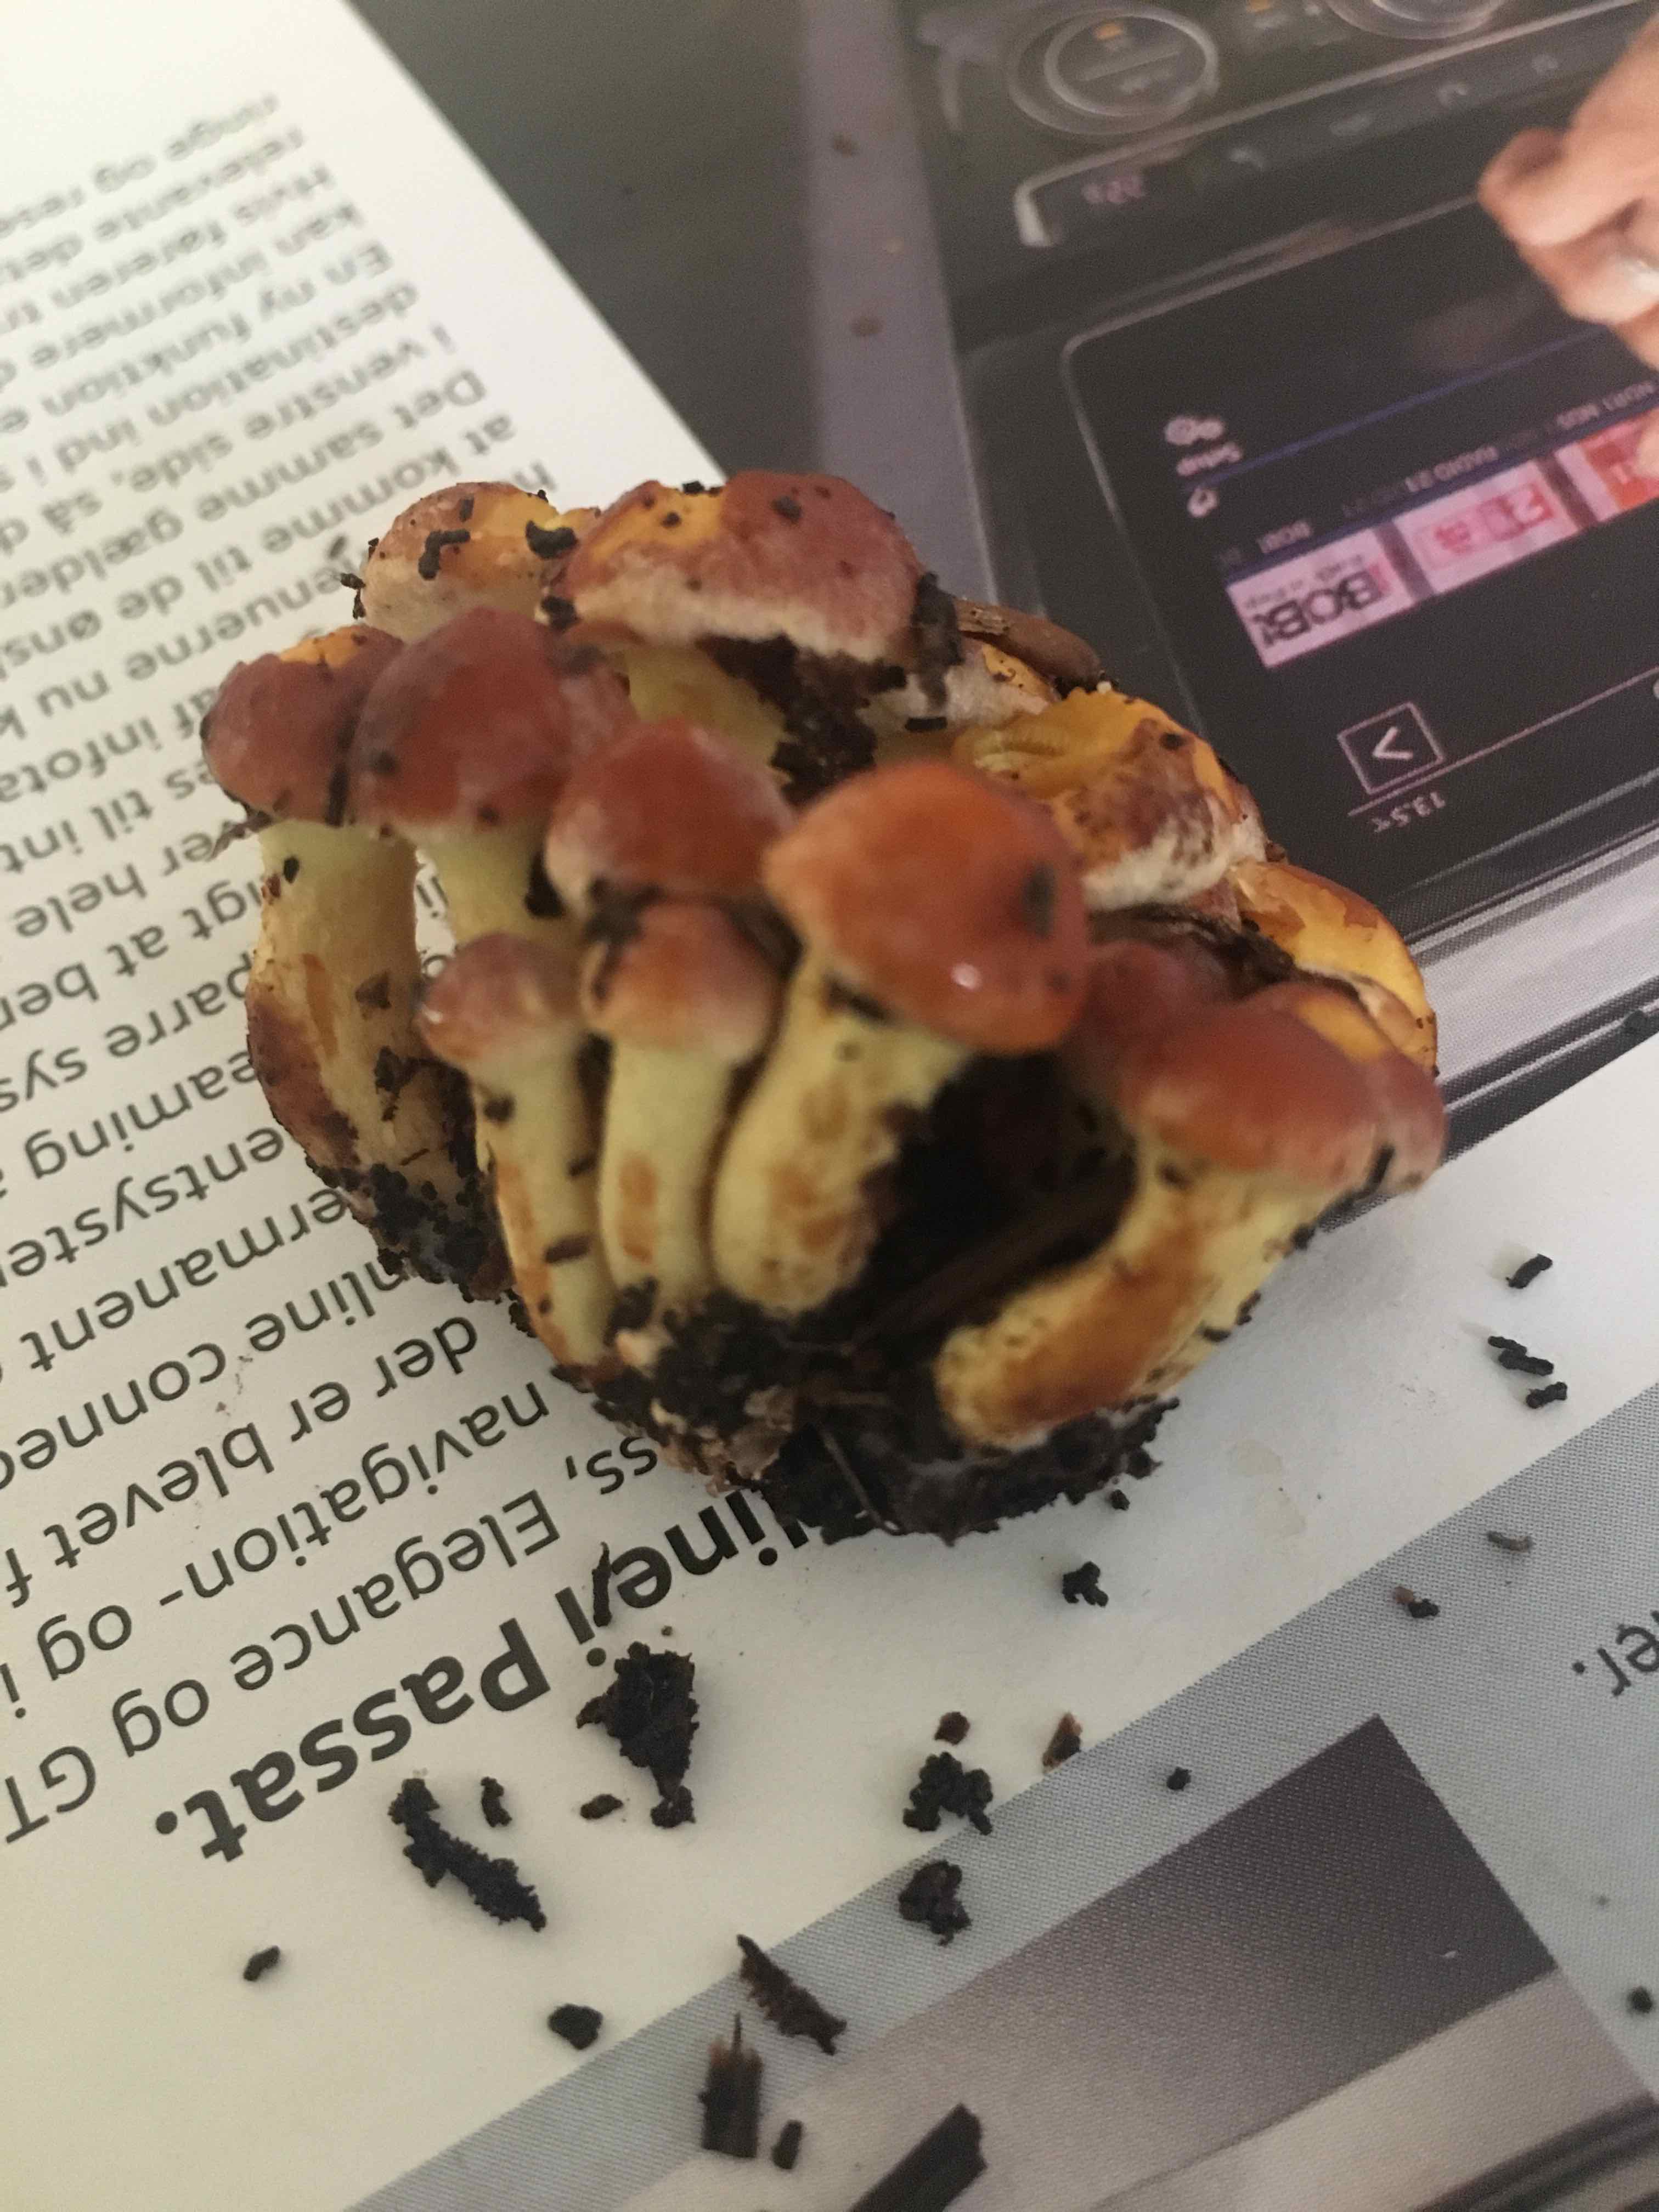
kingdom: Fungi
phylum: Basidiomycota
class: Agaricomycetes
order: Agaricales
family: Strophariaceae
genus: Hypholoma
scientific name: Hypholoma fasciculare
